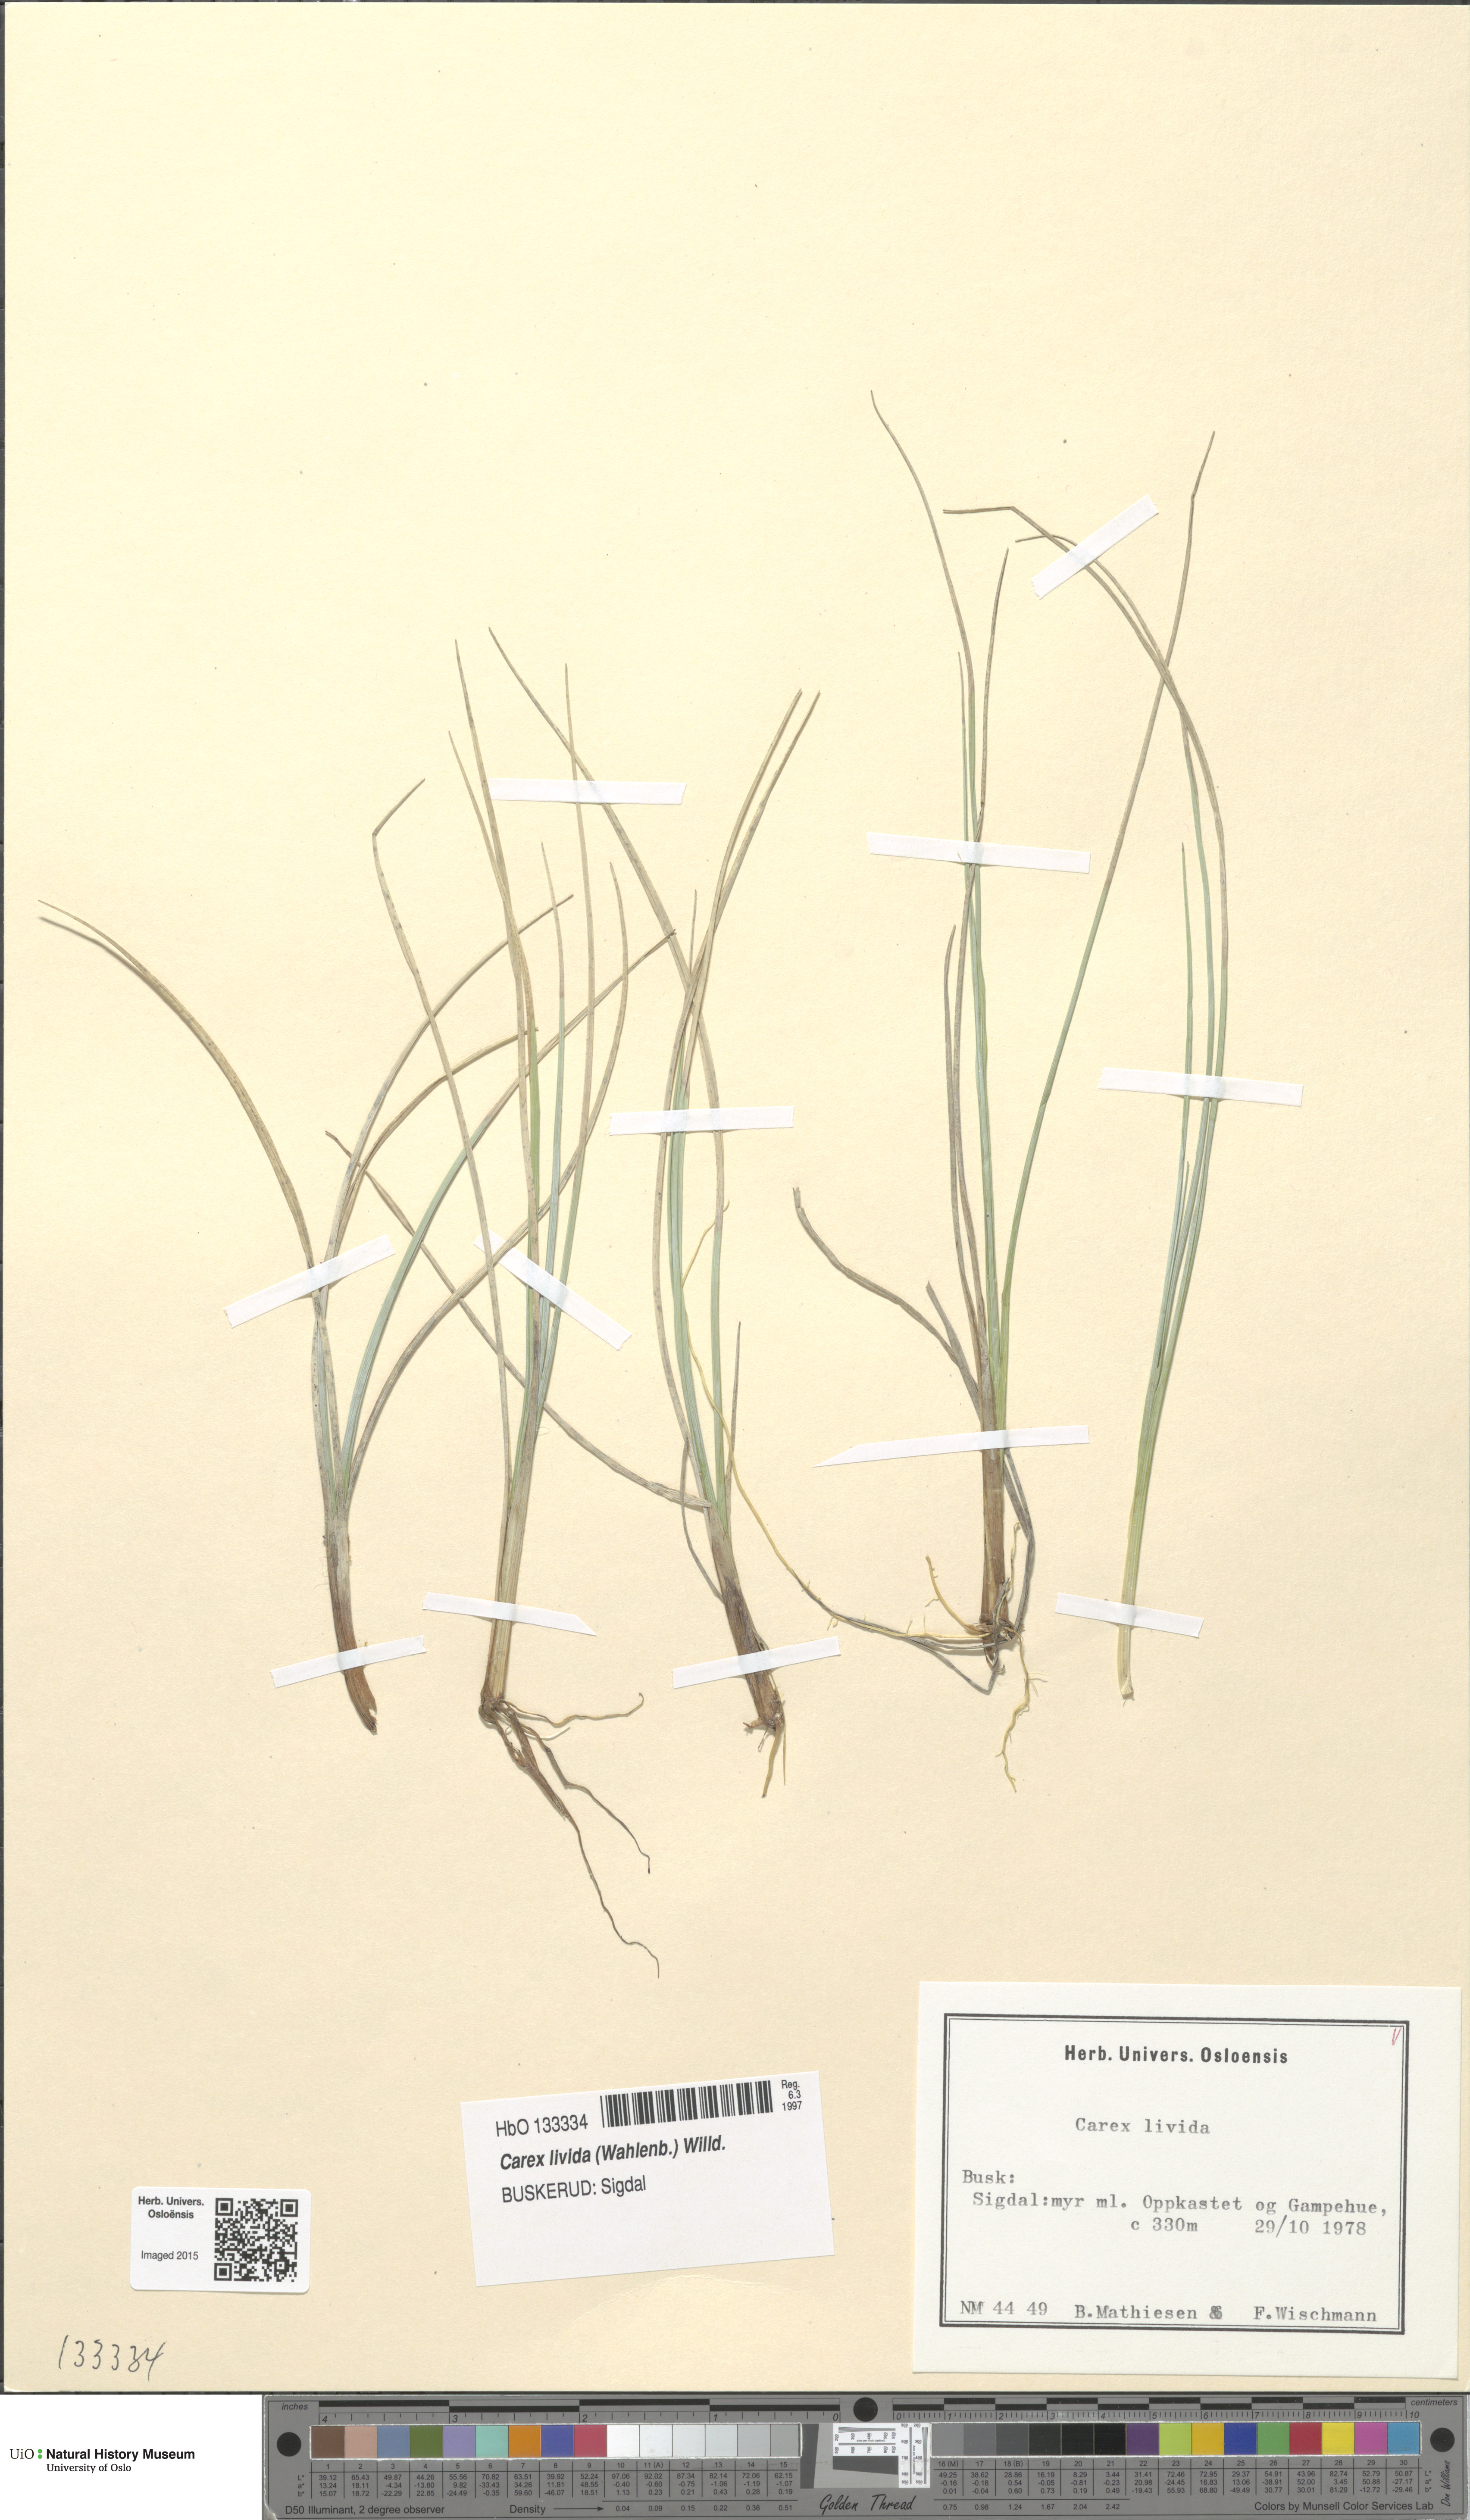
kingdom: Plantae
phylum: Tracheophyta
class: Liliopsida
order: Poales
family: Cyperaceae
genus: Carex
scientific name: Carex livida
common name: Livid sedge
